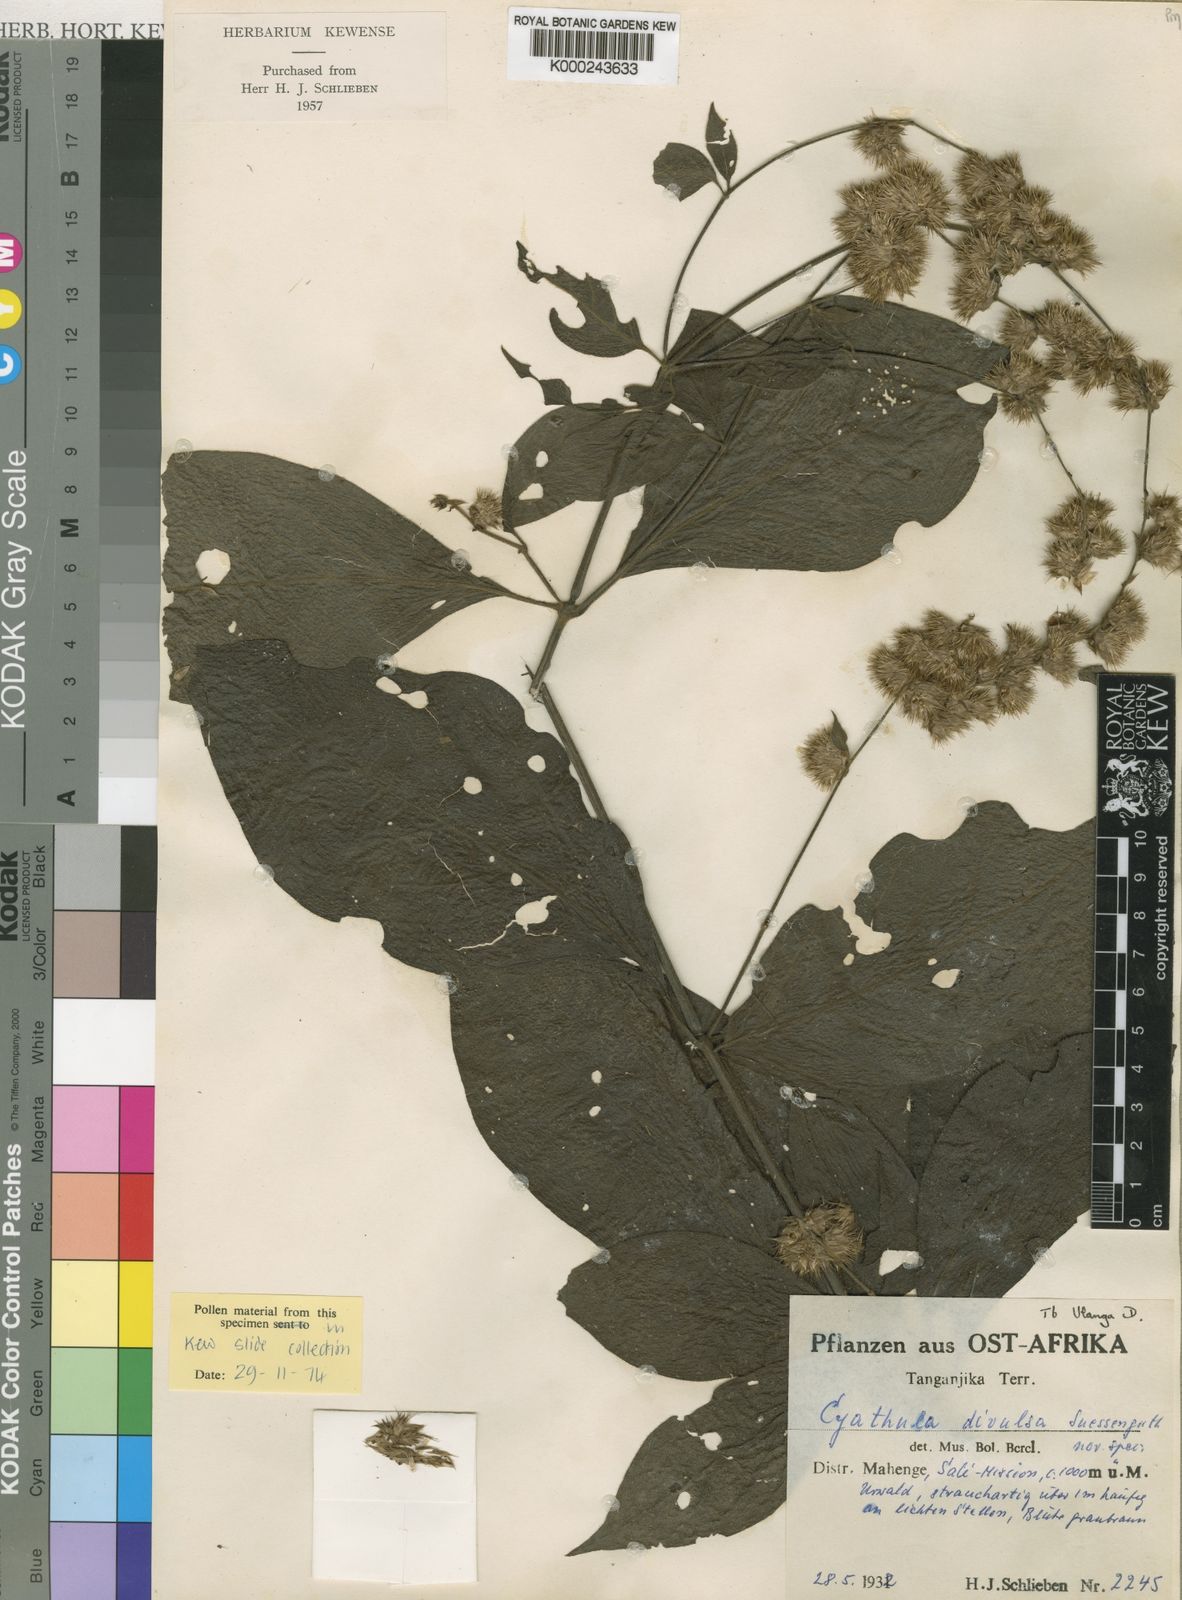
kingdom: Plantae
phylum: Tracheophyta
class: Magnoliopsida
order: Caryophyllales
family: Amaranthaceae
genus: Cyathula
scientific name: Cyathula divulsa
